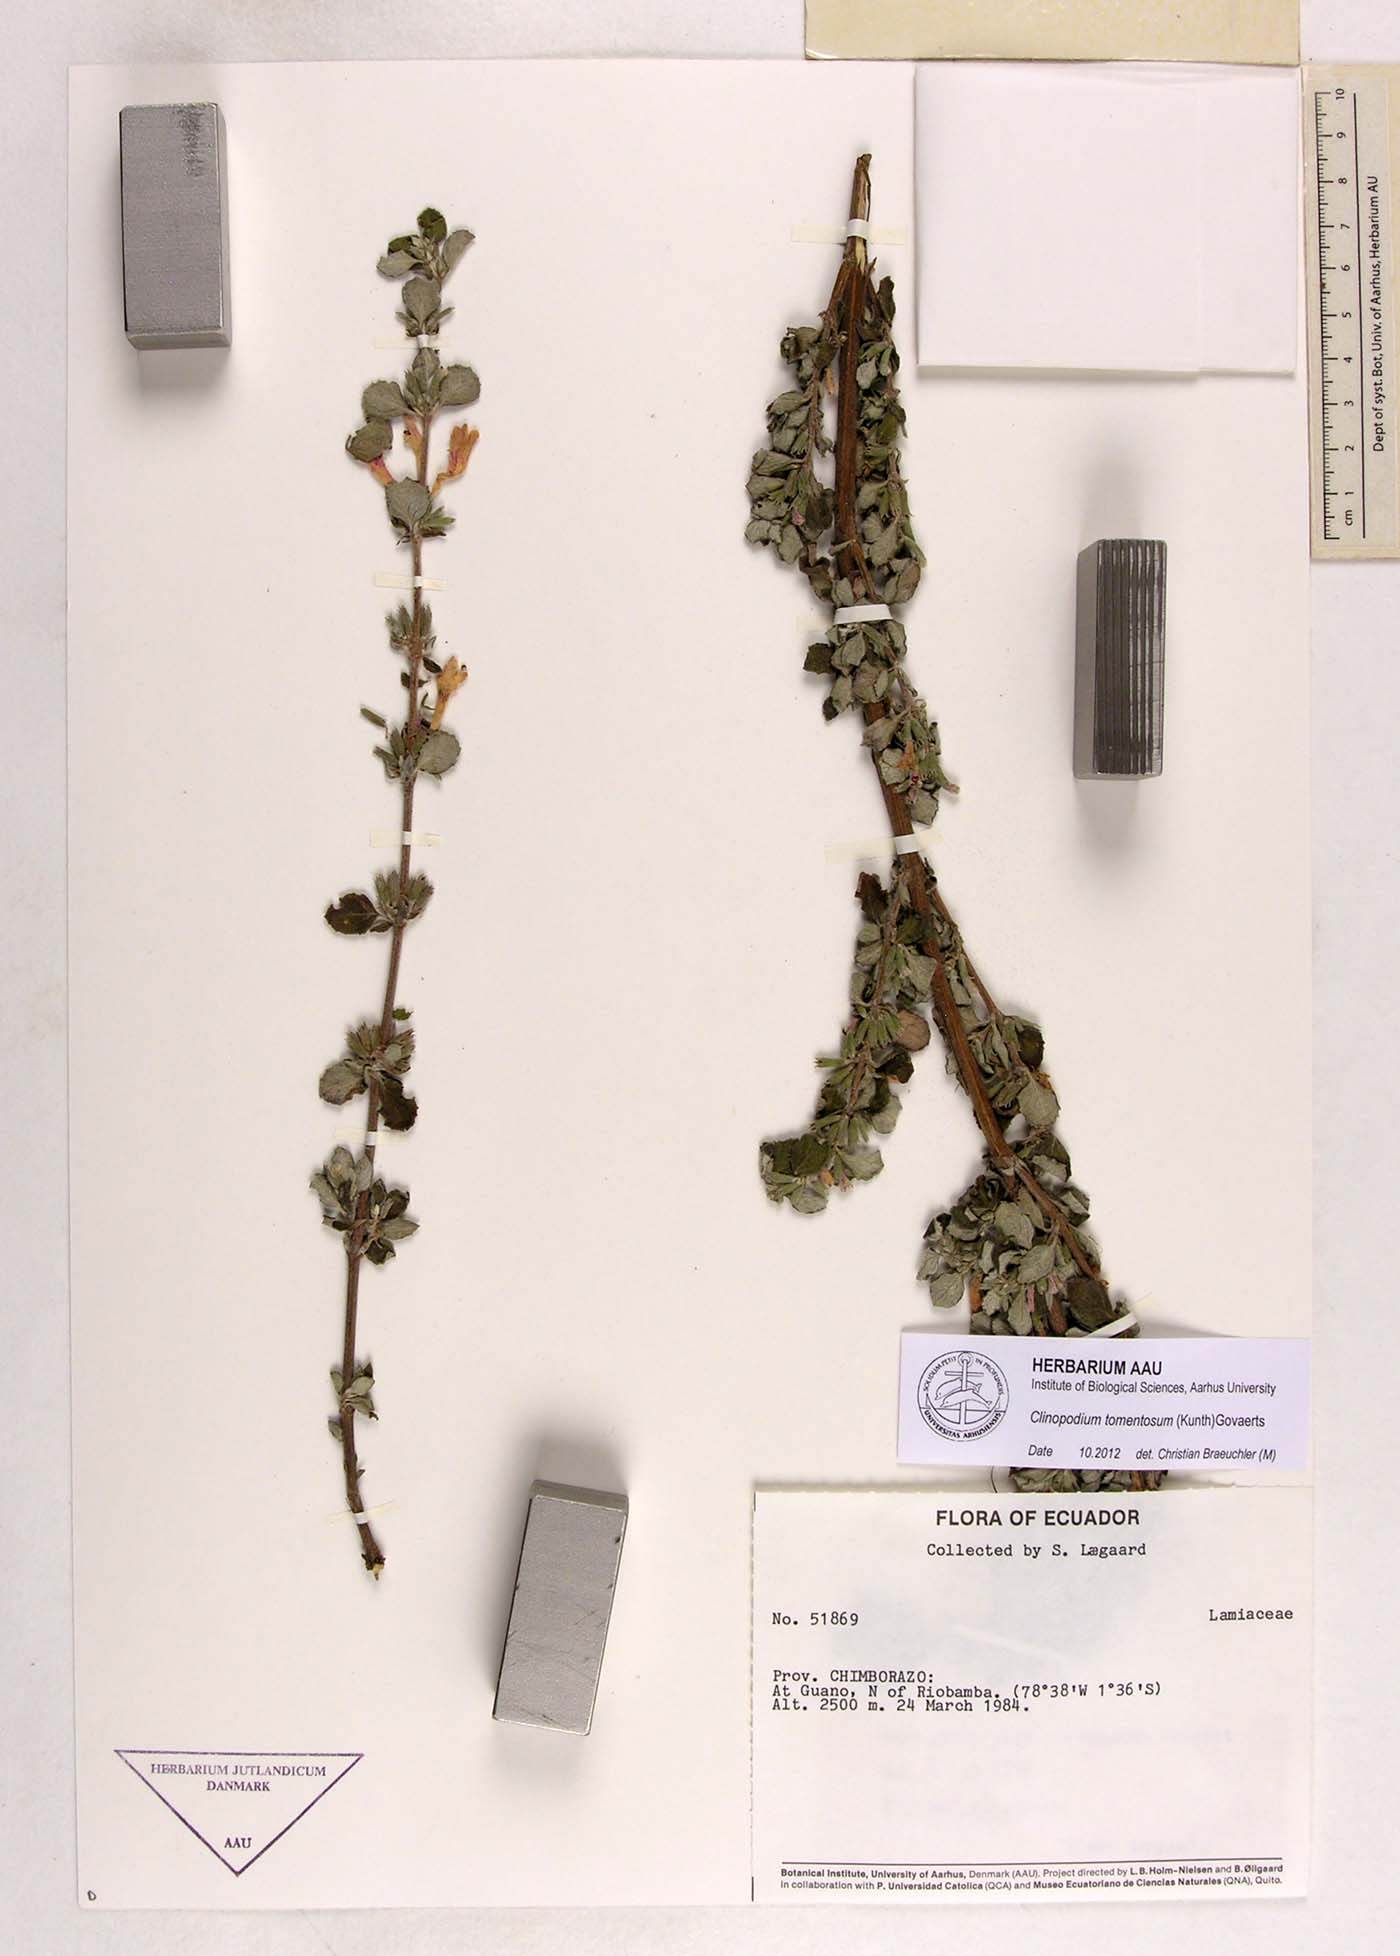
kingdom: Plantae
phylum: Tracheophyta
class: Magnoliopsida
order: Lamiales
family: Lamiaceae
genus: Clinopodium
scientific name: Clinopodium tomentosum
